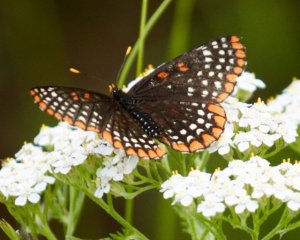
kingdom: Animalia
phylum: Arthropoda
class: Insecta
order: Lepidoptera
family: Nymphalidae
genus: Euphydryas
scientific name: Euphydryas phaeton
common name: Baltimore Checkerspot
